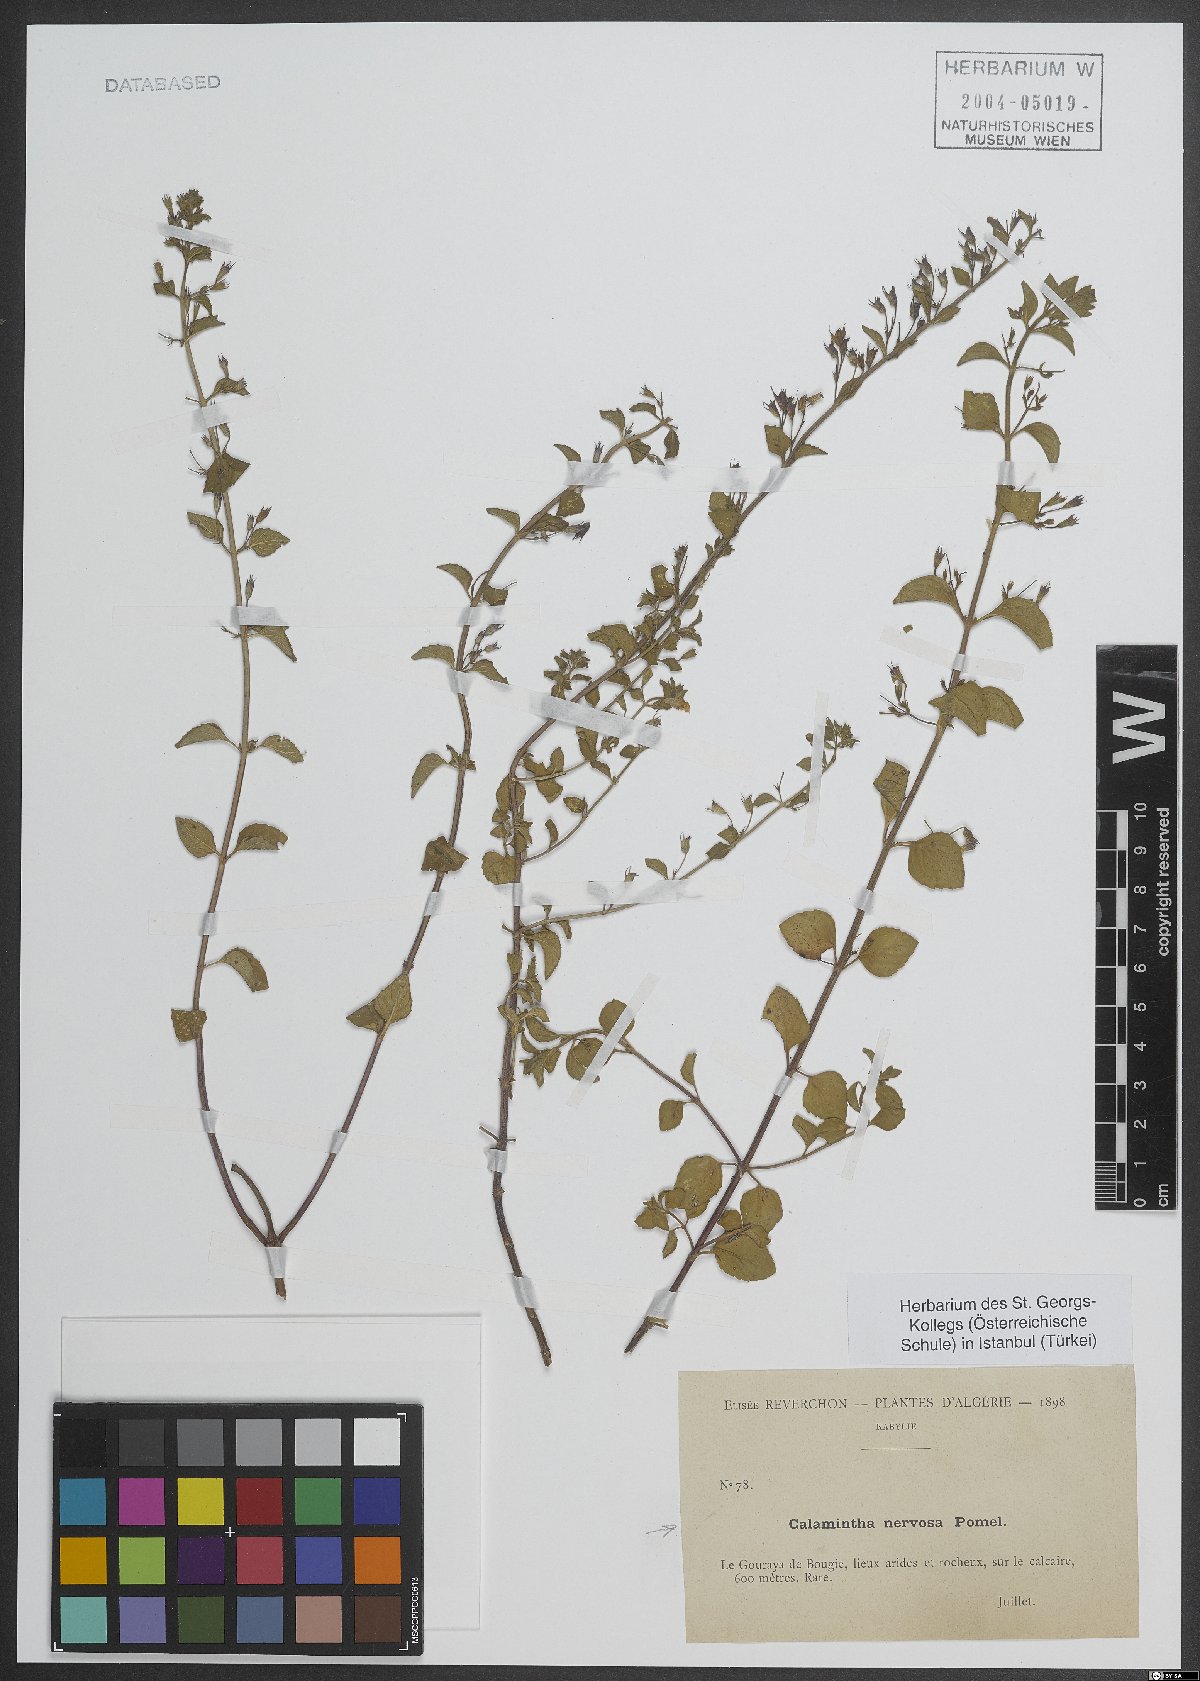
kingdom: Plantae
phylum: Tracheophyta
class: Magnoliopsida
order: Lamiales
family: Lamiaceae
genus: Calamintha
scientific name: Calamintha
